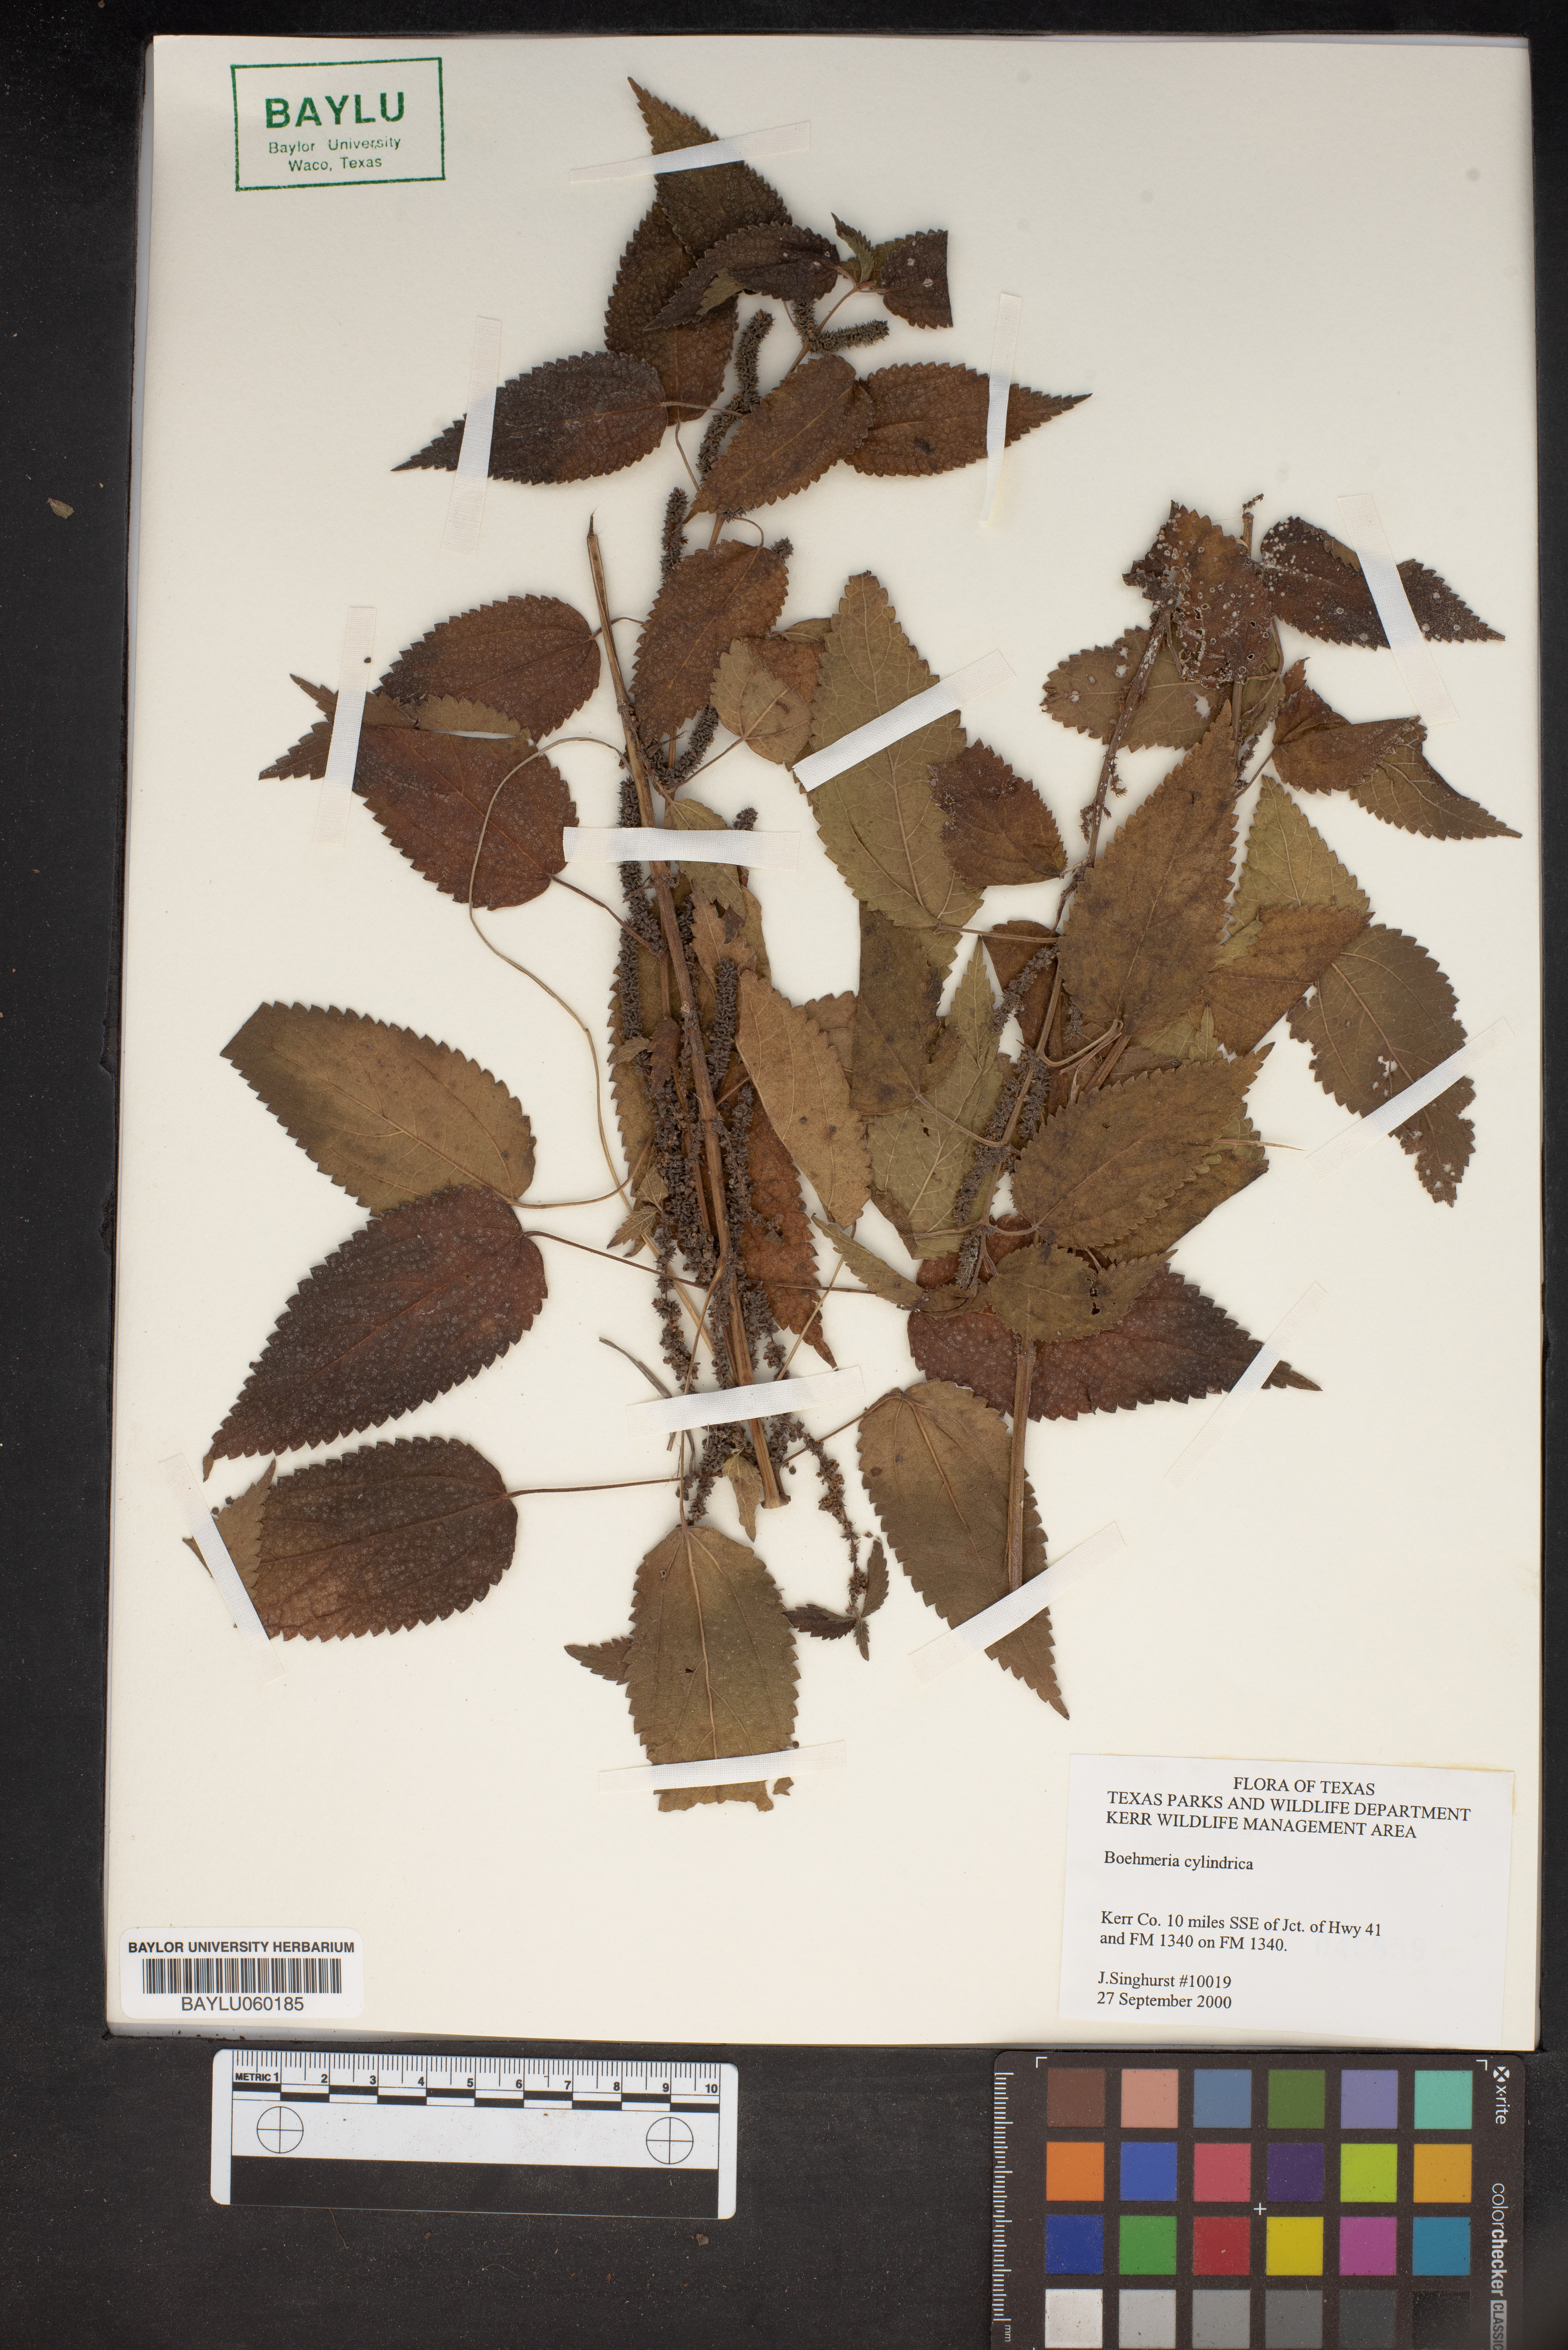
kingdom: Plantae
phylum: Tracheophyta
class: Magnoliopsida
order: Rosales
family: Urticaceae
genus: Boehmeria
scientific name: Boehmeria cylindrica
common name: Bog-hemp
